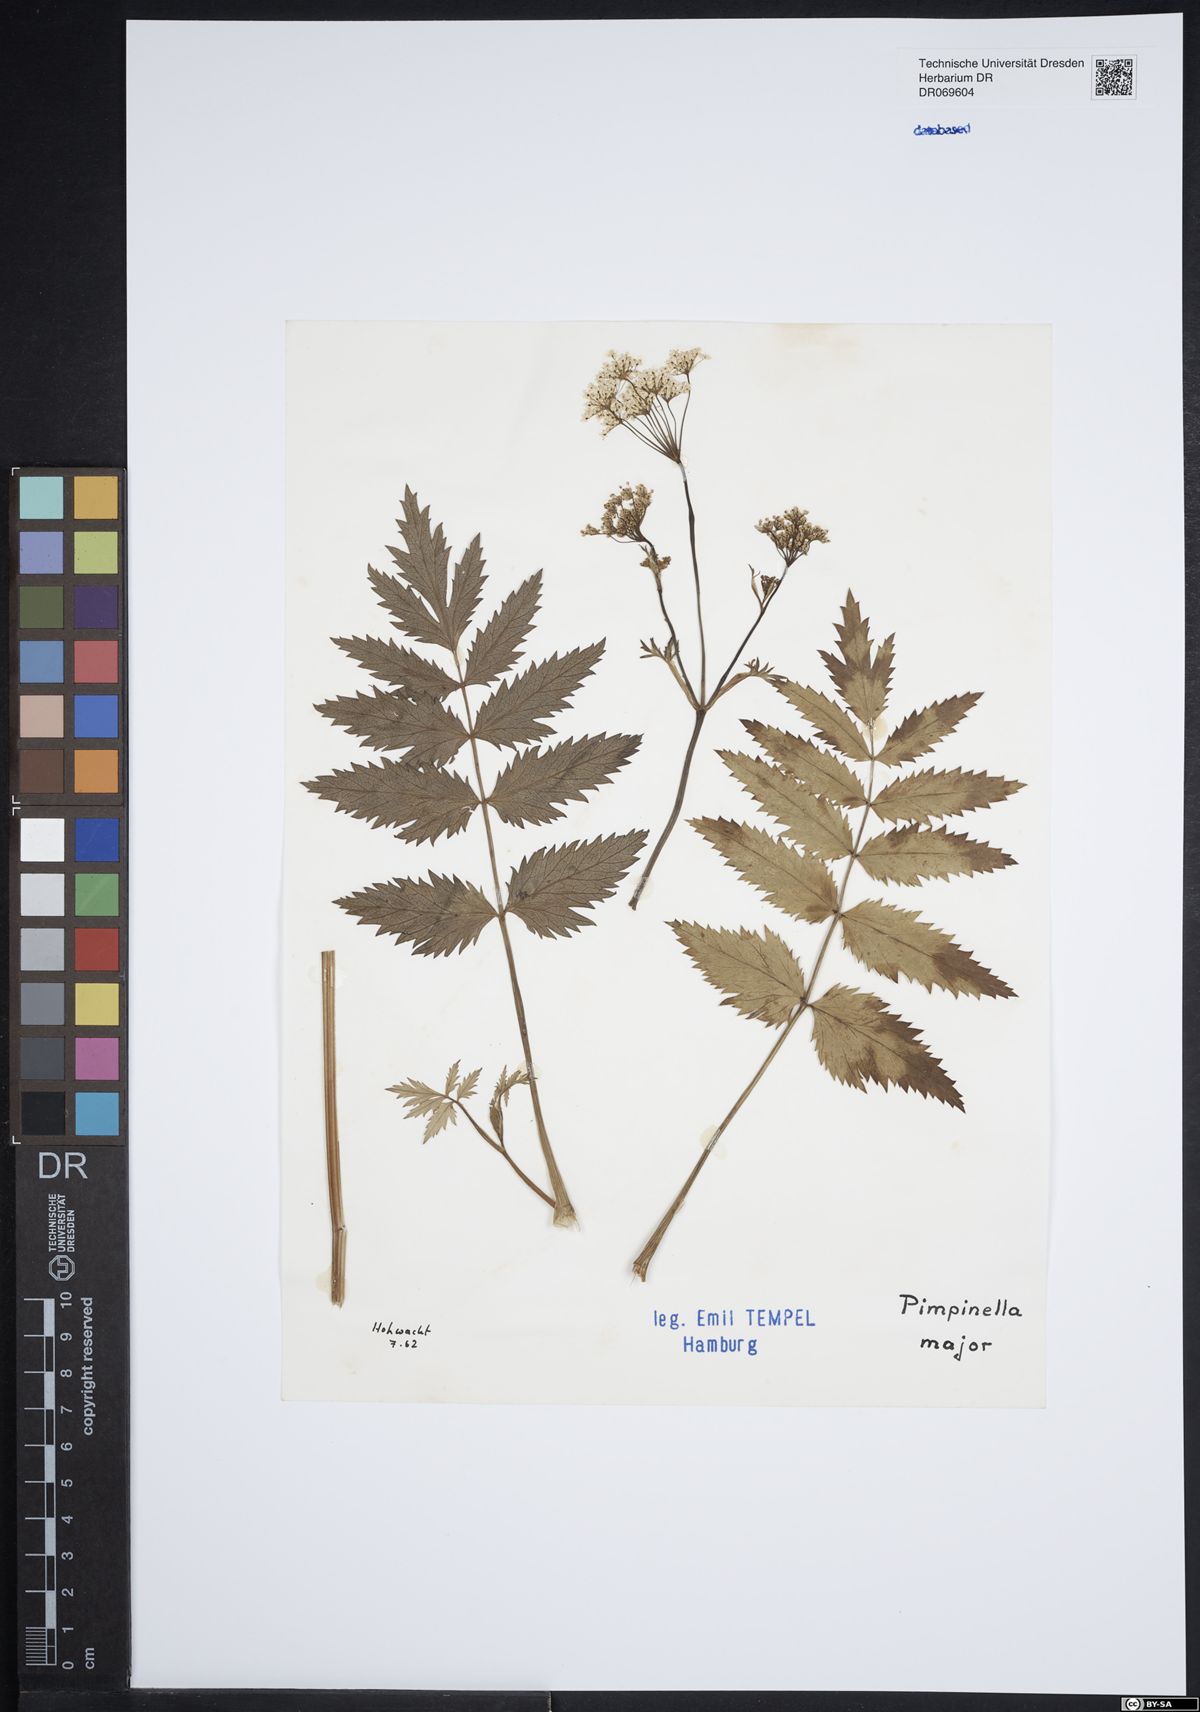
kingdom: Plantae
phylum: Tracheophyta
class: Magnoliopsida
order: Apiales
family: Apiaceae
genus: Pimpinella
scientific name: Pimpinella major
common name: Greater burnet-saxifrage
